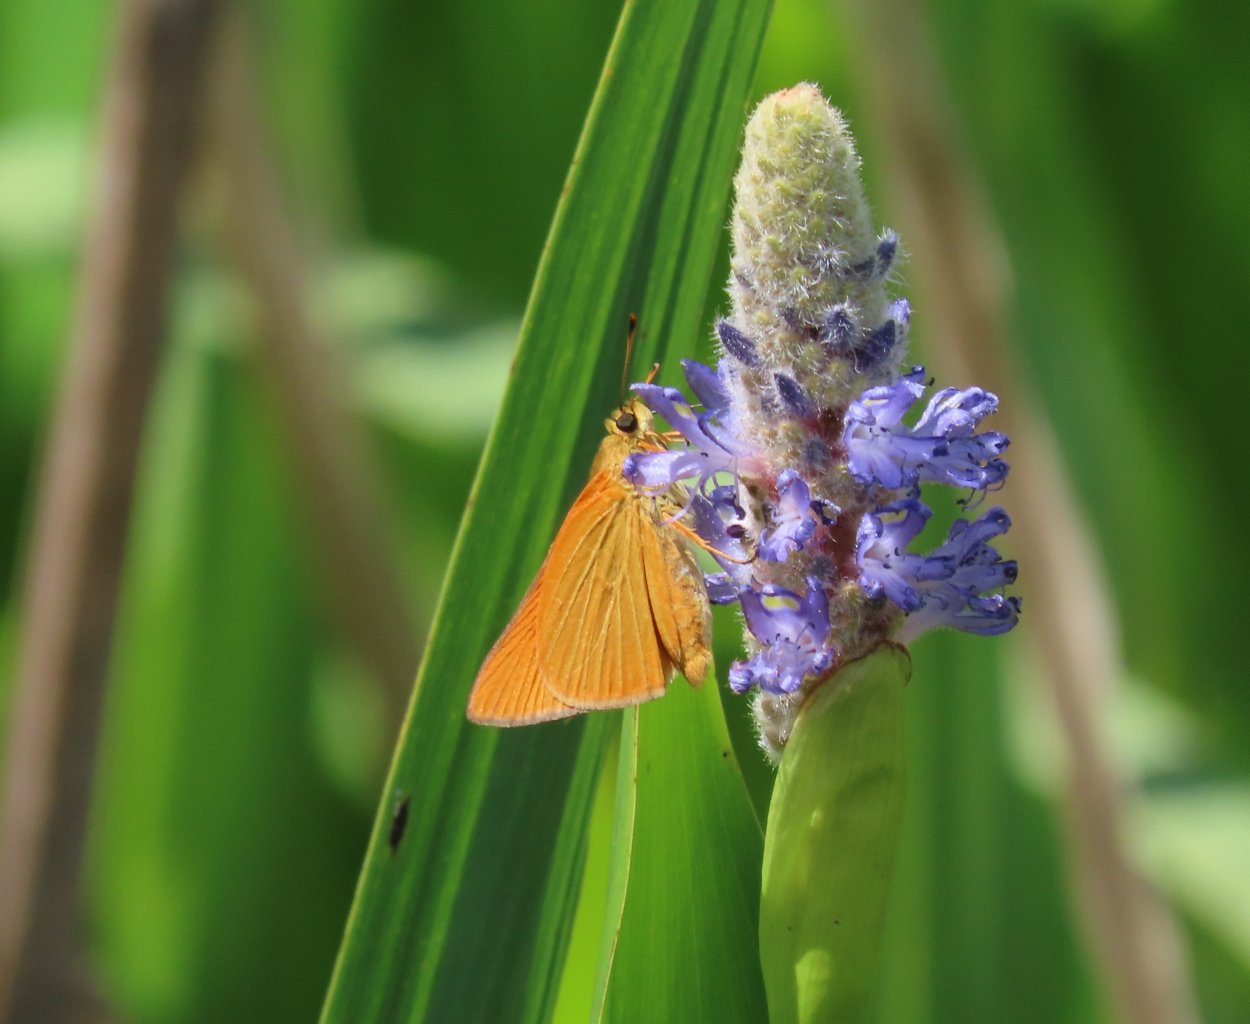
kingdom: Animalia
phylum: Arthropoda
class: Insecta
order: Lepidoptera
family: Hesperiidae
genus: Problema
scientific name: Problema bulenta
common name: Rare Skipper
